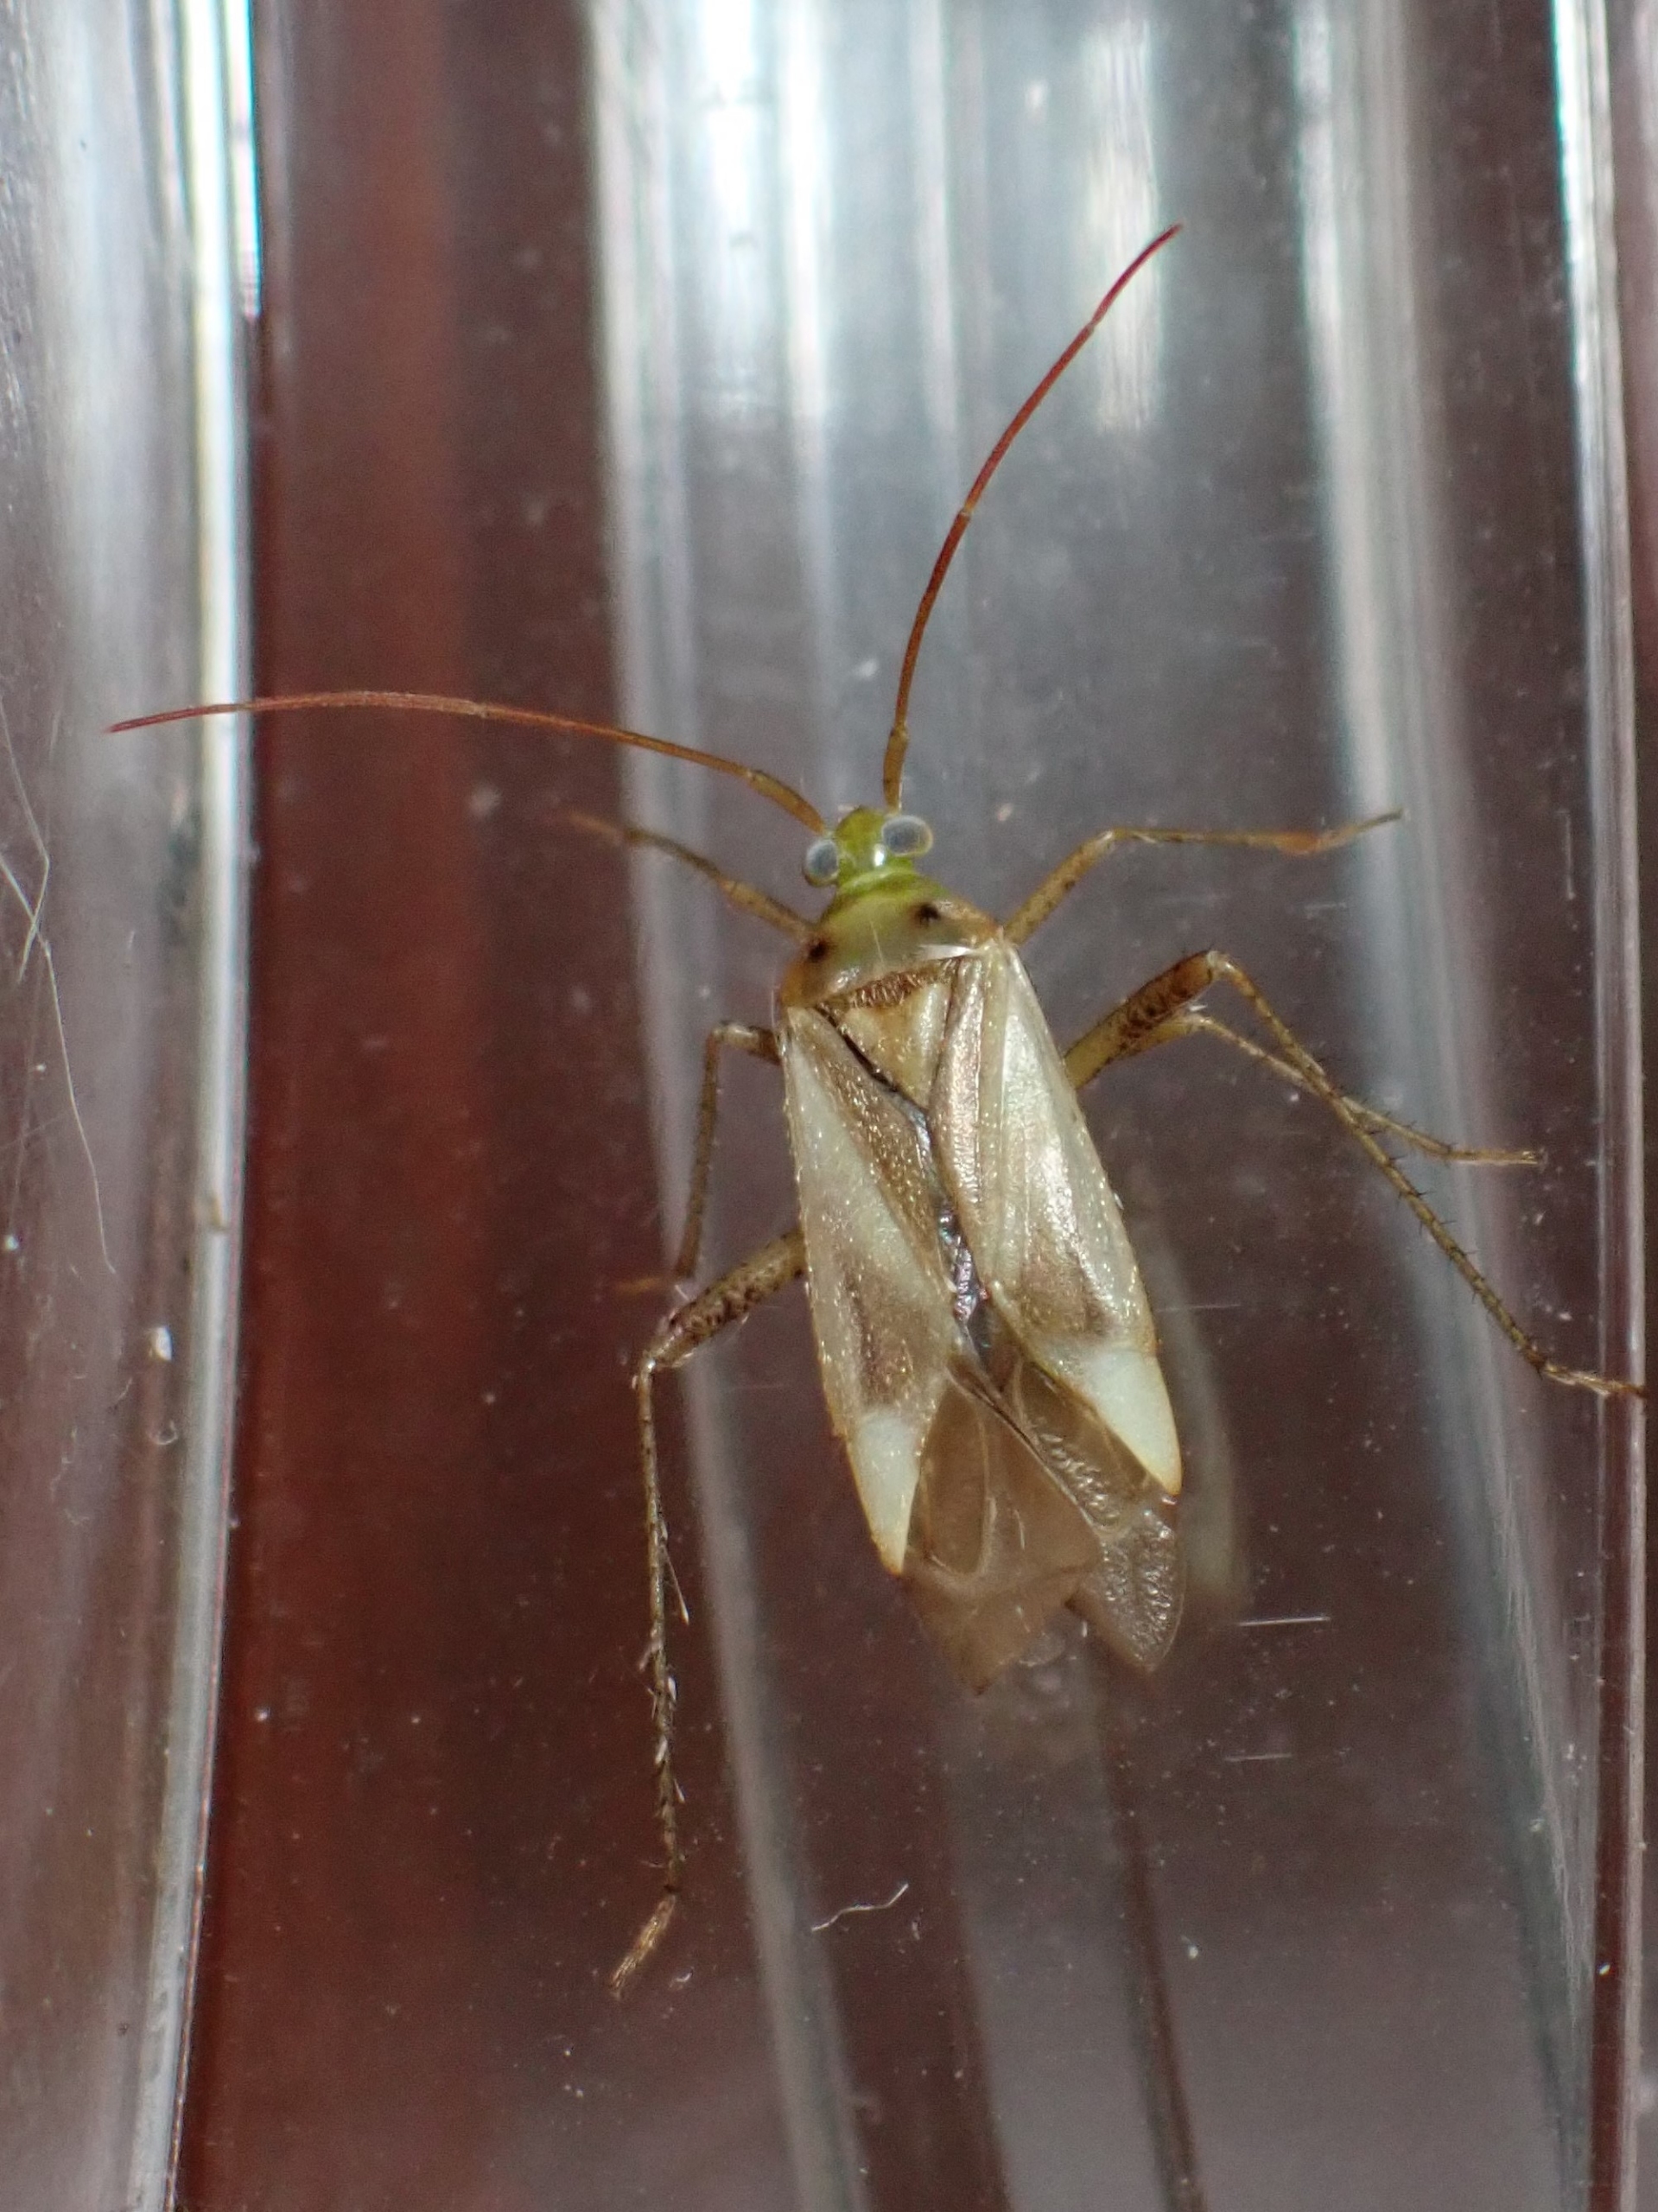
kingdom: Animalia
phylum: Arthropoda
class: Insecta
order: Hemiptera
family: Miridae
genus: Adelphocoris
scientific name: Adelphocoris quadripunctatus
